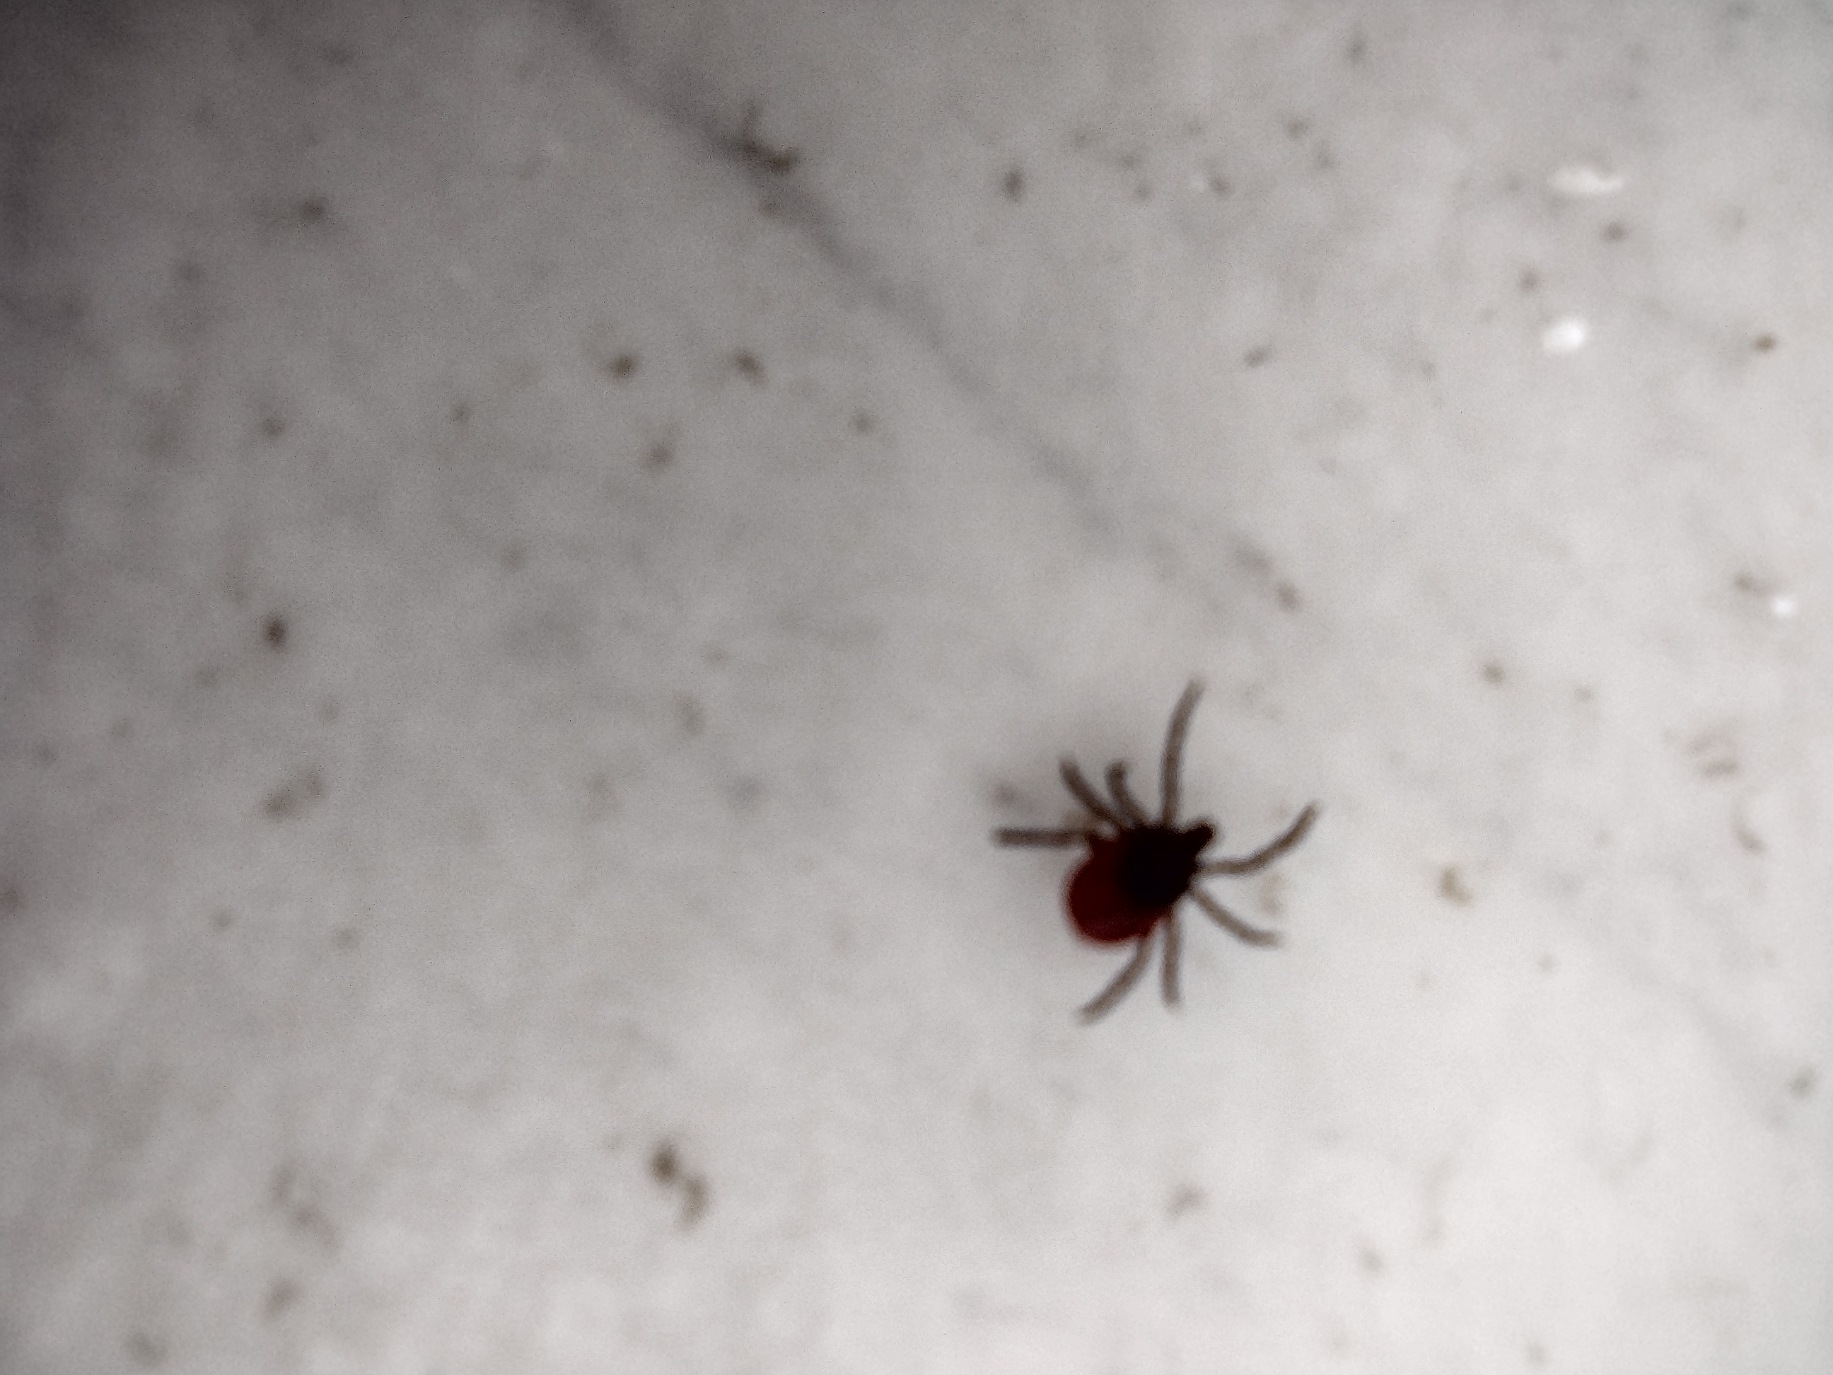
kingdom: Animalia
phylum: Arthropoda
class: Arachnida
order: Ixodida
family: Ixodidae
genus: Ixodes
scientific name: Ixodes ricinus
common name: Skovflåt
